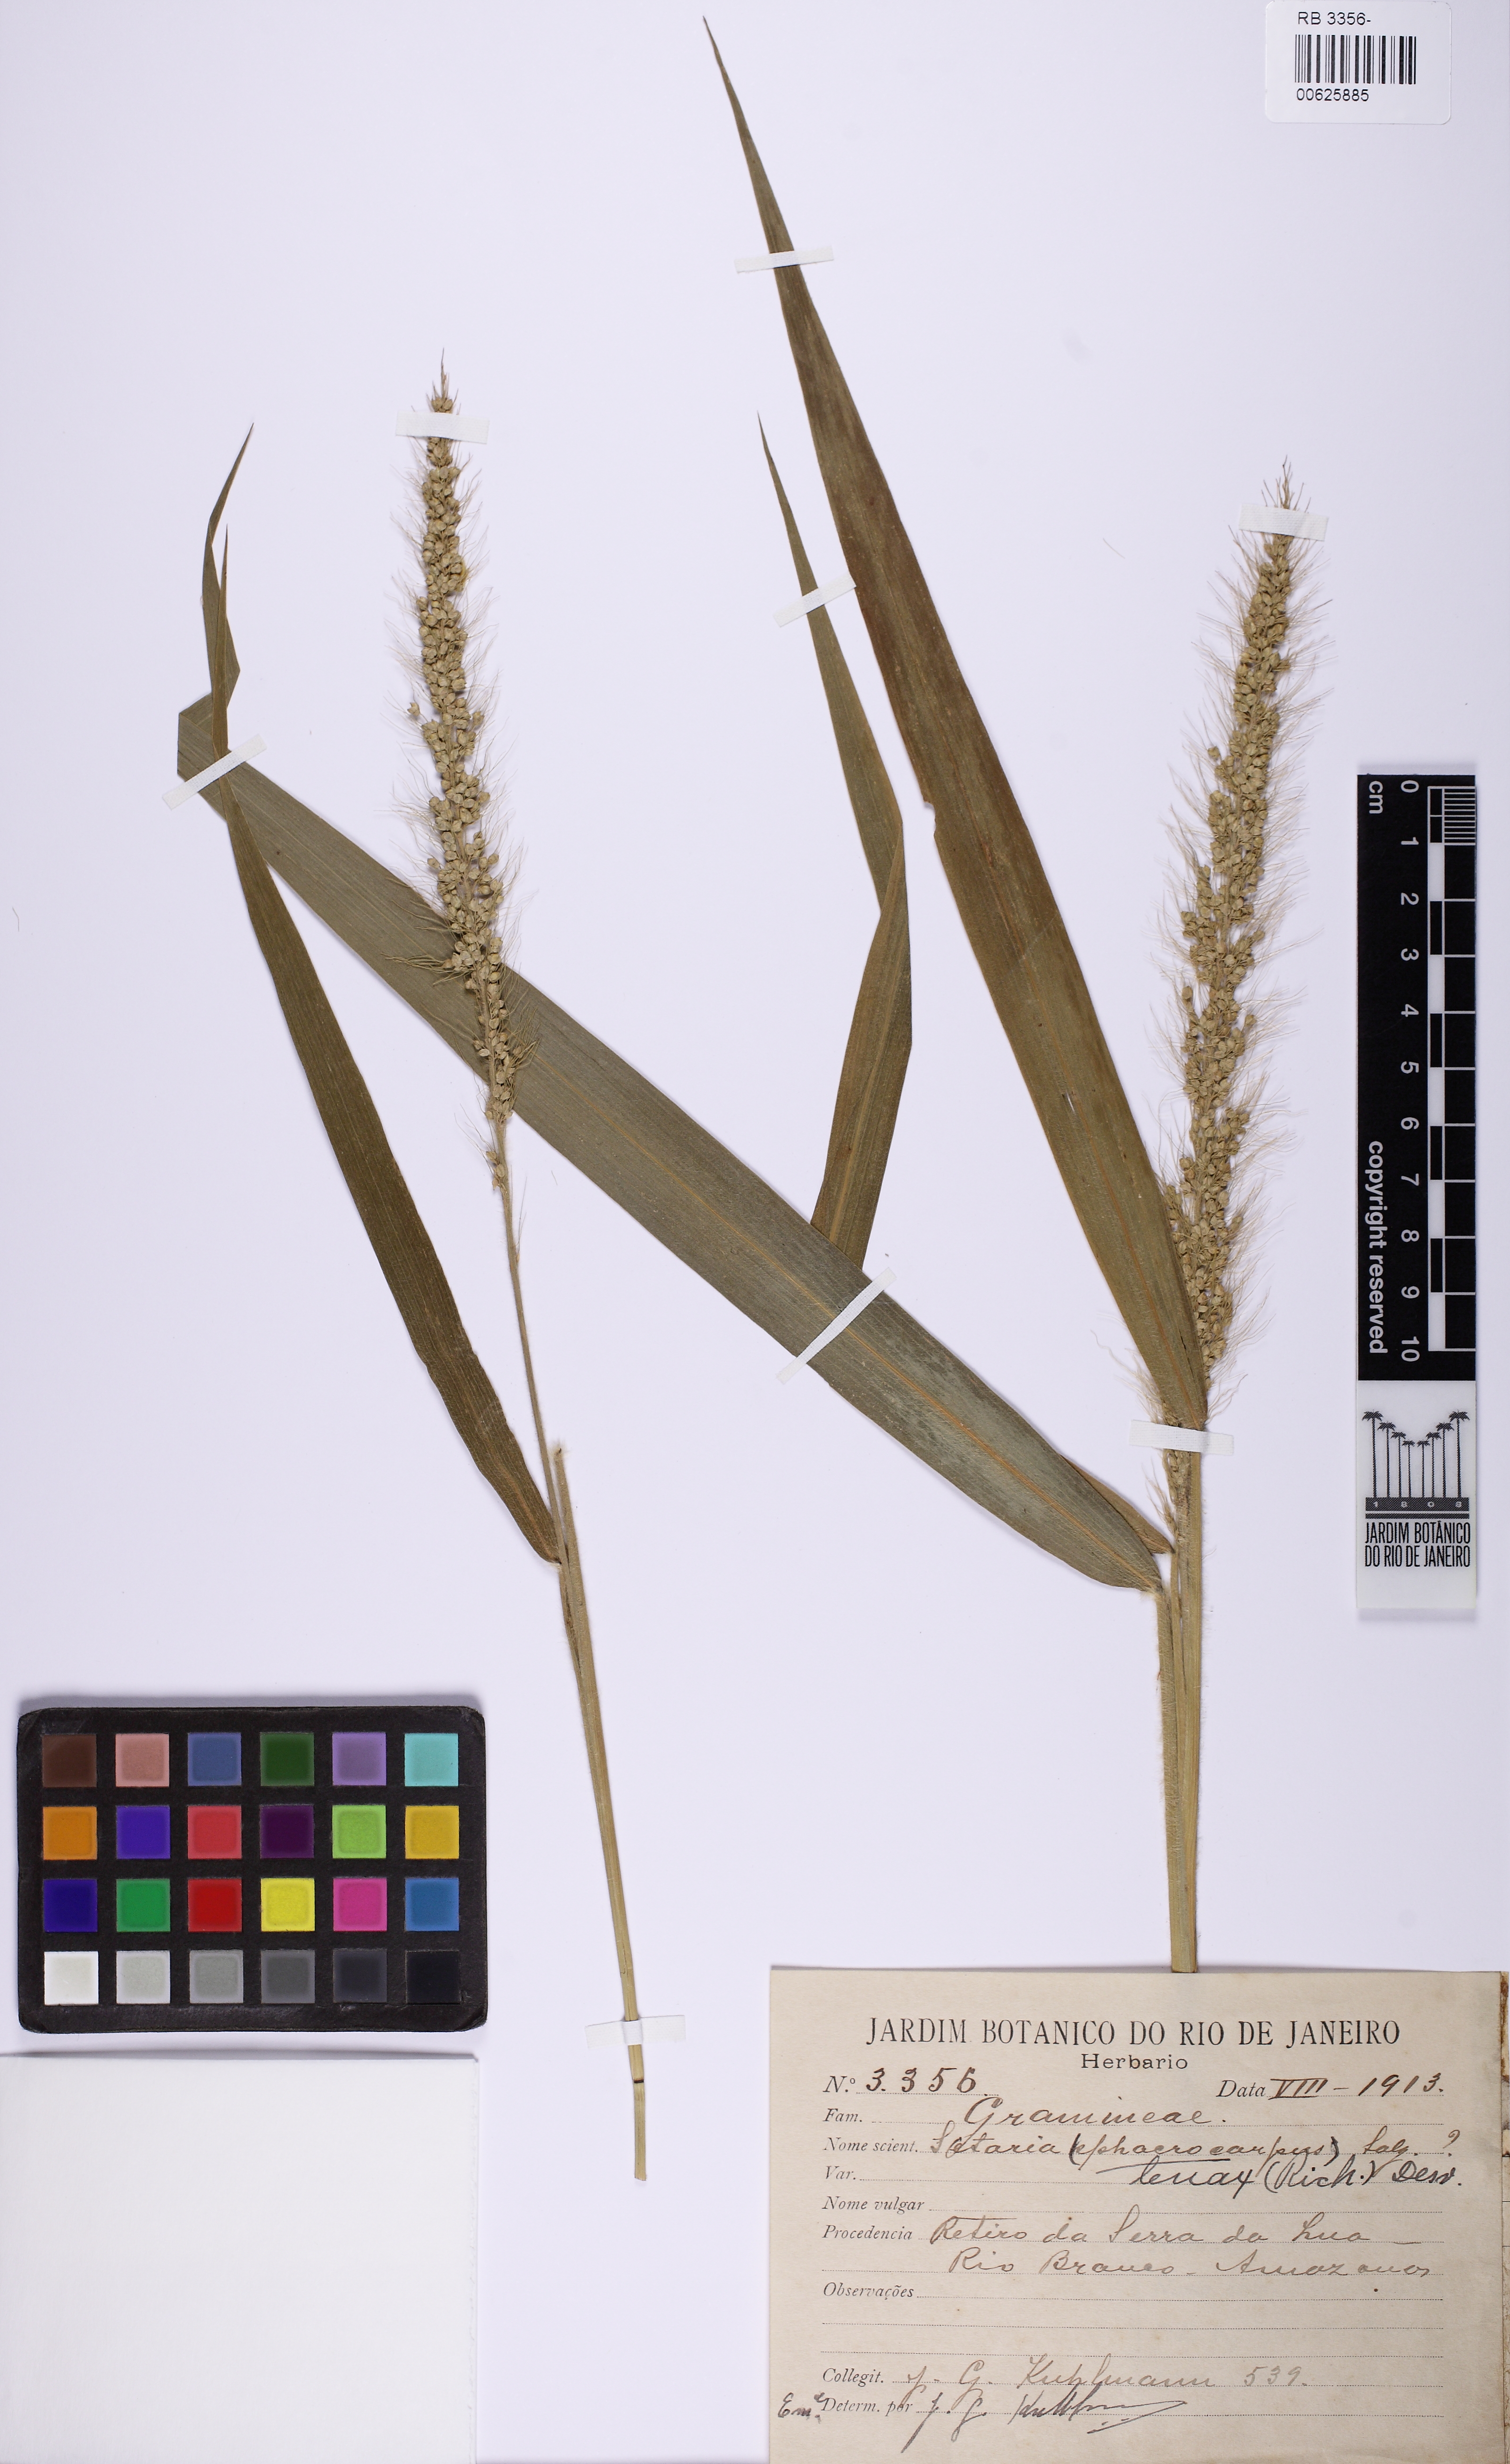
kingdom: Plantae
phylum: Tracheophyta
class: Liliopsida
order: Poales
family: Poaceae
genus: Setaria
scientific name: Setaria tenax
